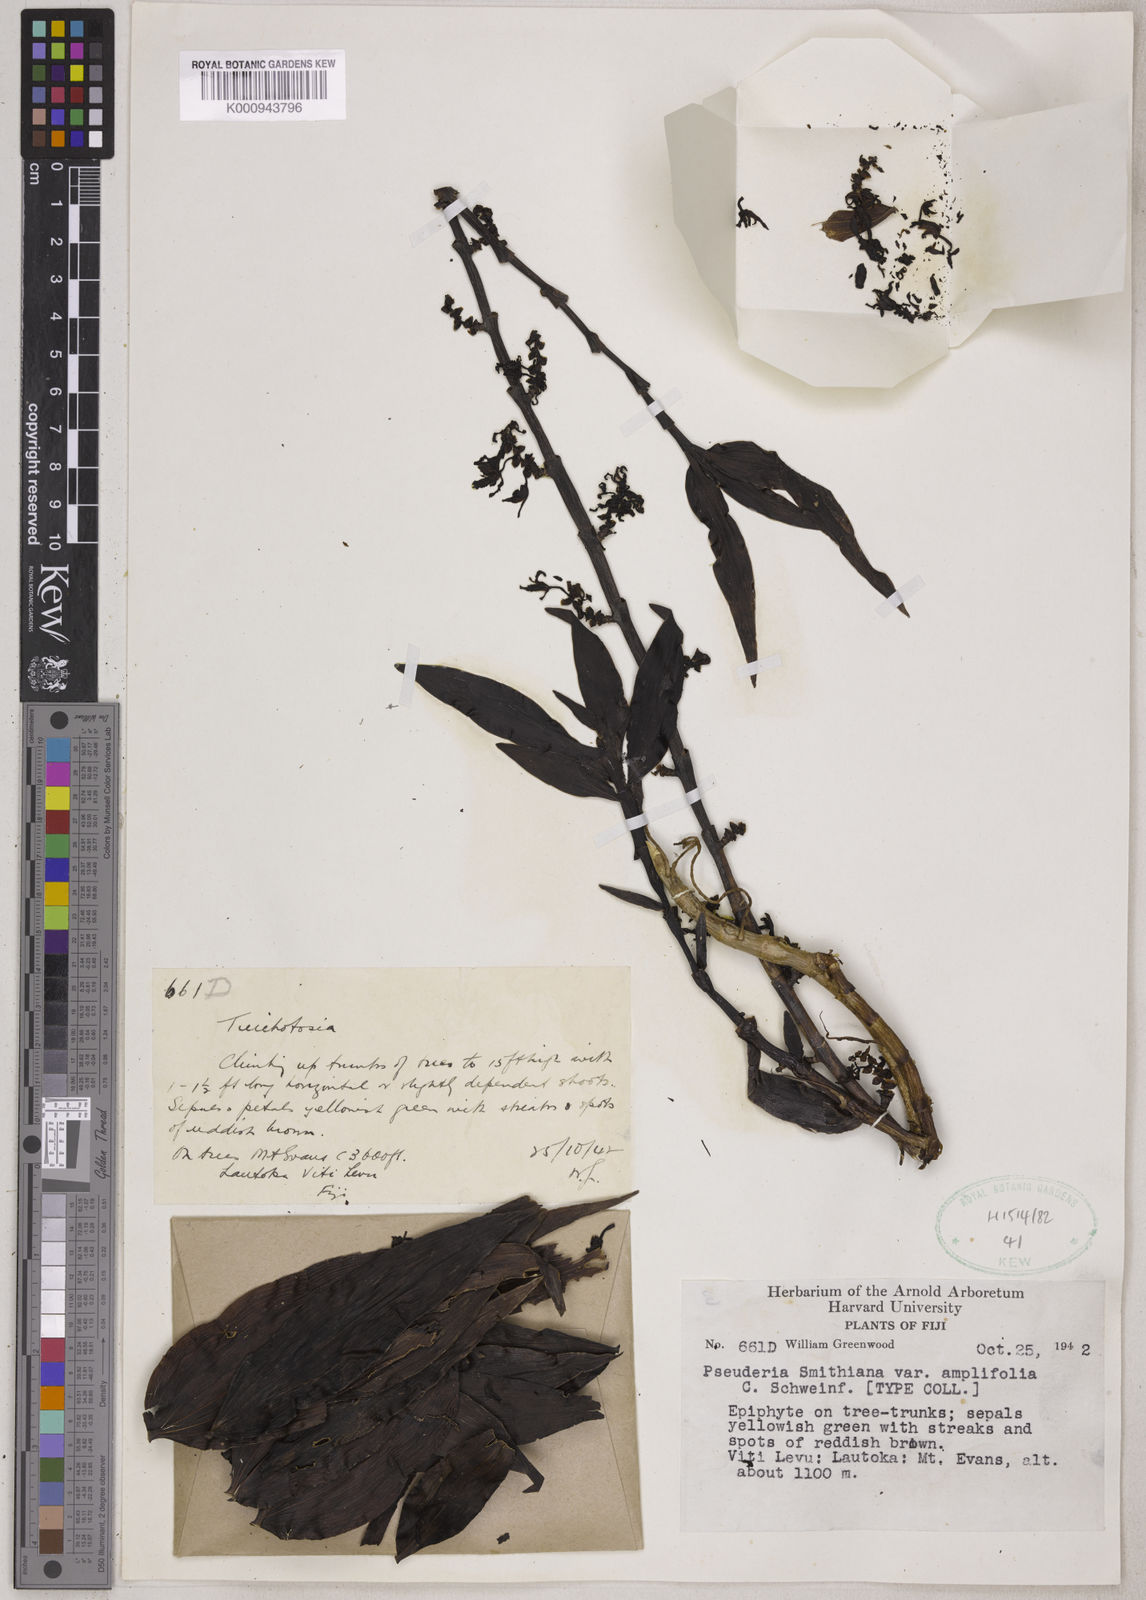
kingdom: Plantae
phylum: Tracheophyta
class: Liliopsida
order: Asparagales
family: Orchidaceae
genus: Pseuderia
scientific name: Pseuderia smithiana
